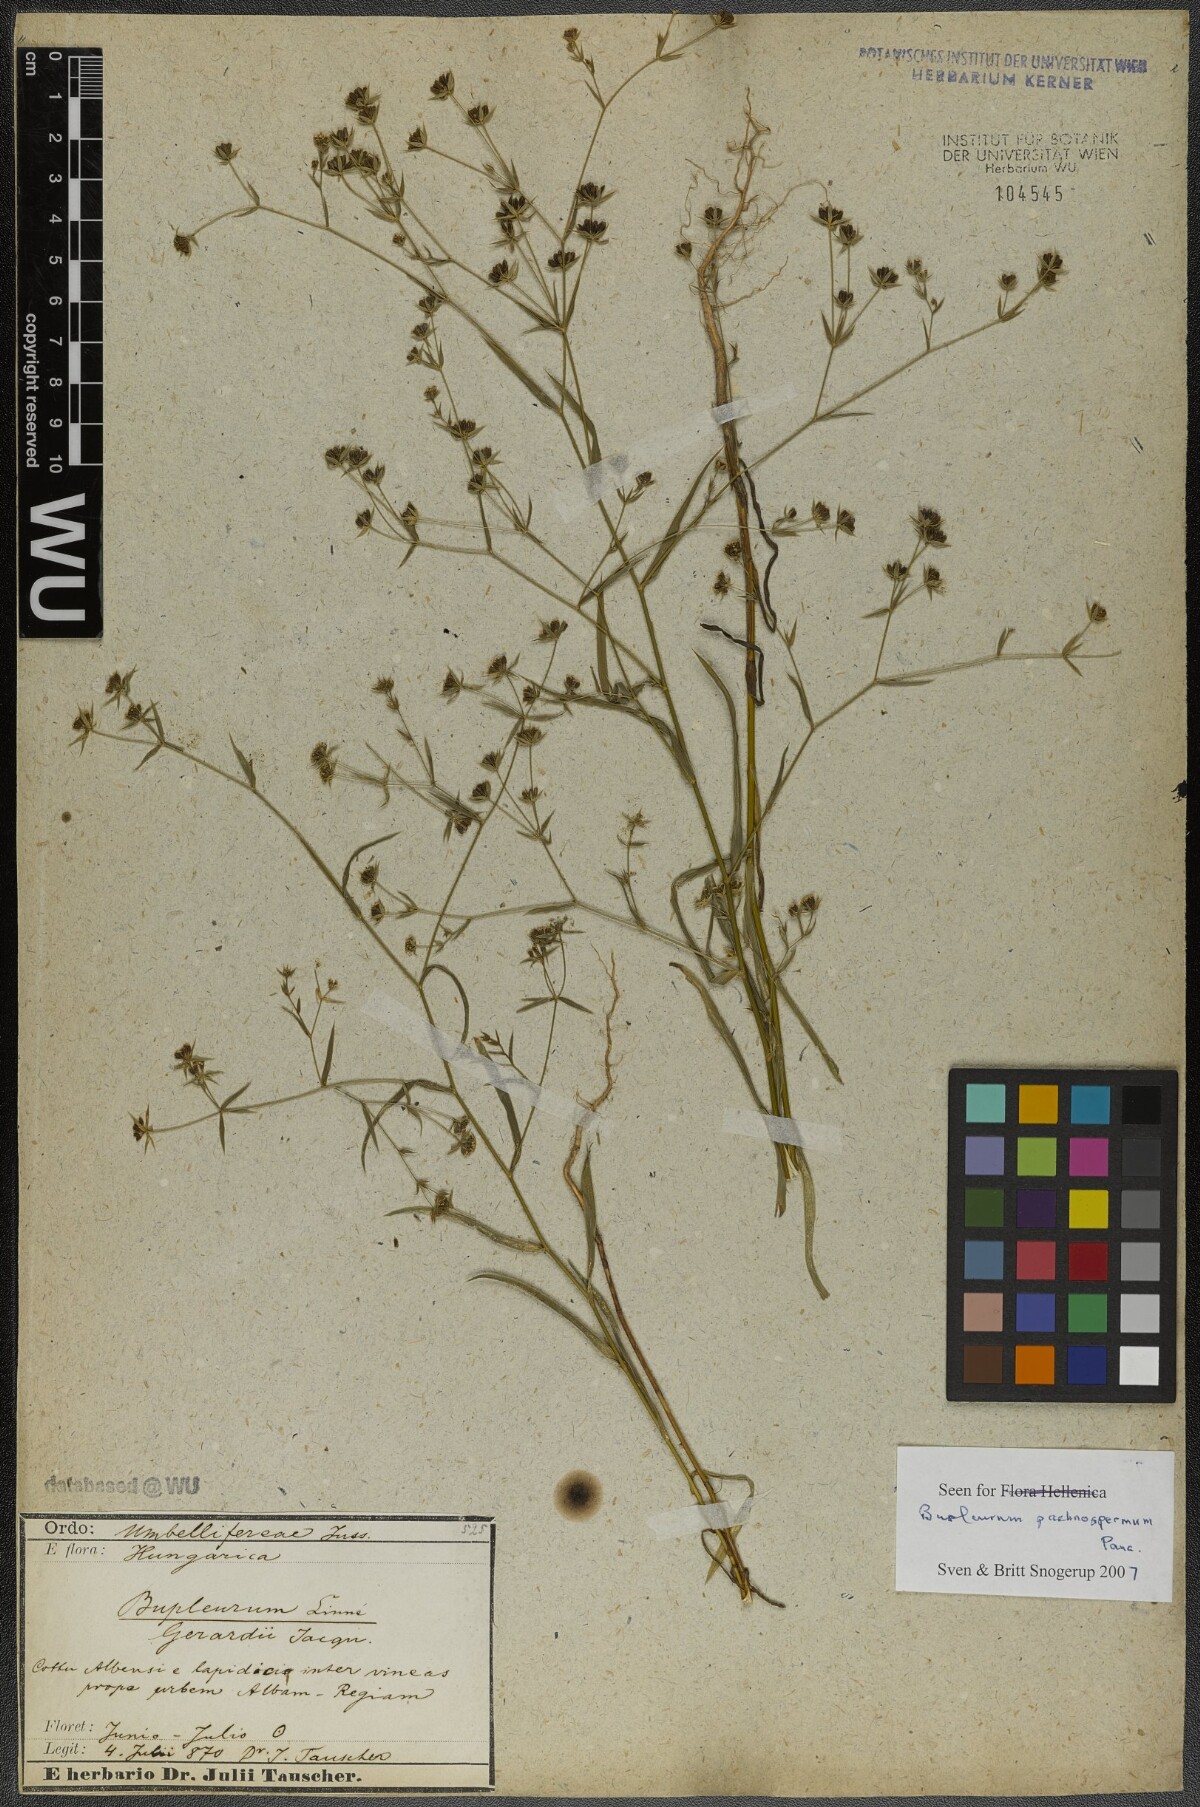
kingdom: Plantae
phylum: Tracheophyta
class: Magnoliopsida
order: Apiales
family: Apiaceae
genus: Bupleurum
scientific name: Bupleurum pachnospermum
